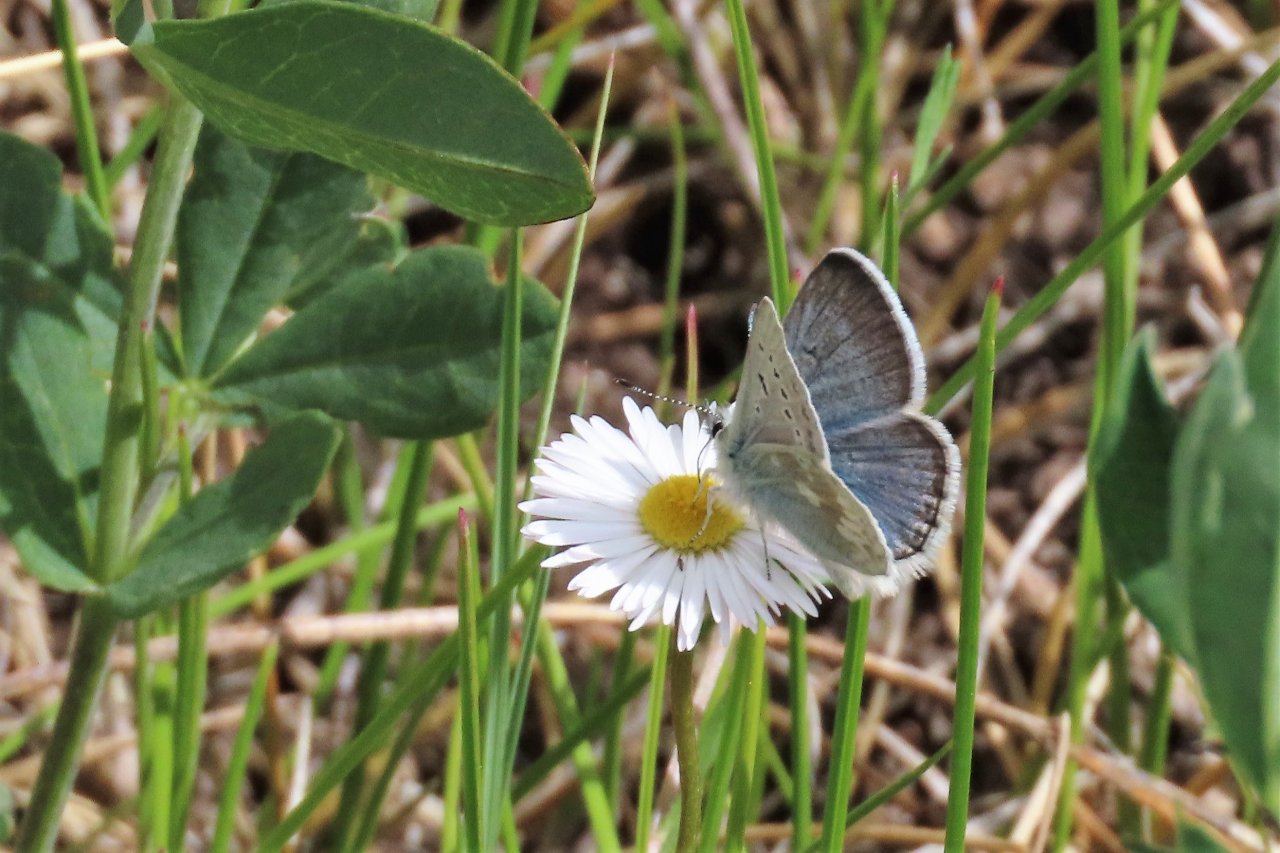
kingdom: Animalia
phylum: Arthropoda
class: Insecta
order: Lepidoptera
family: Lycaenidae
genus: Agriades
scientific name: Agriades glandon
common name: Arctic Blue
